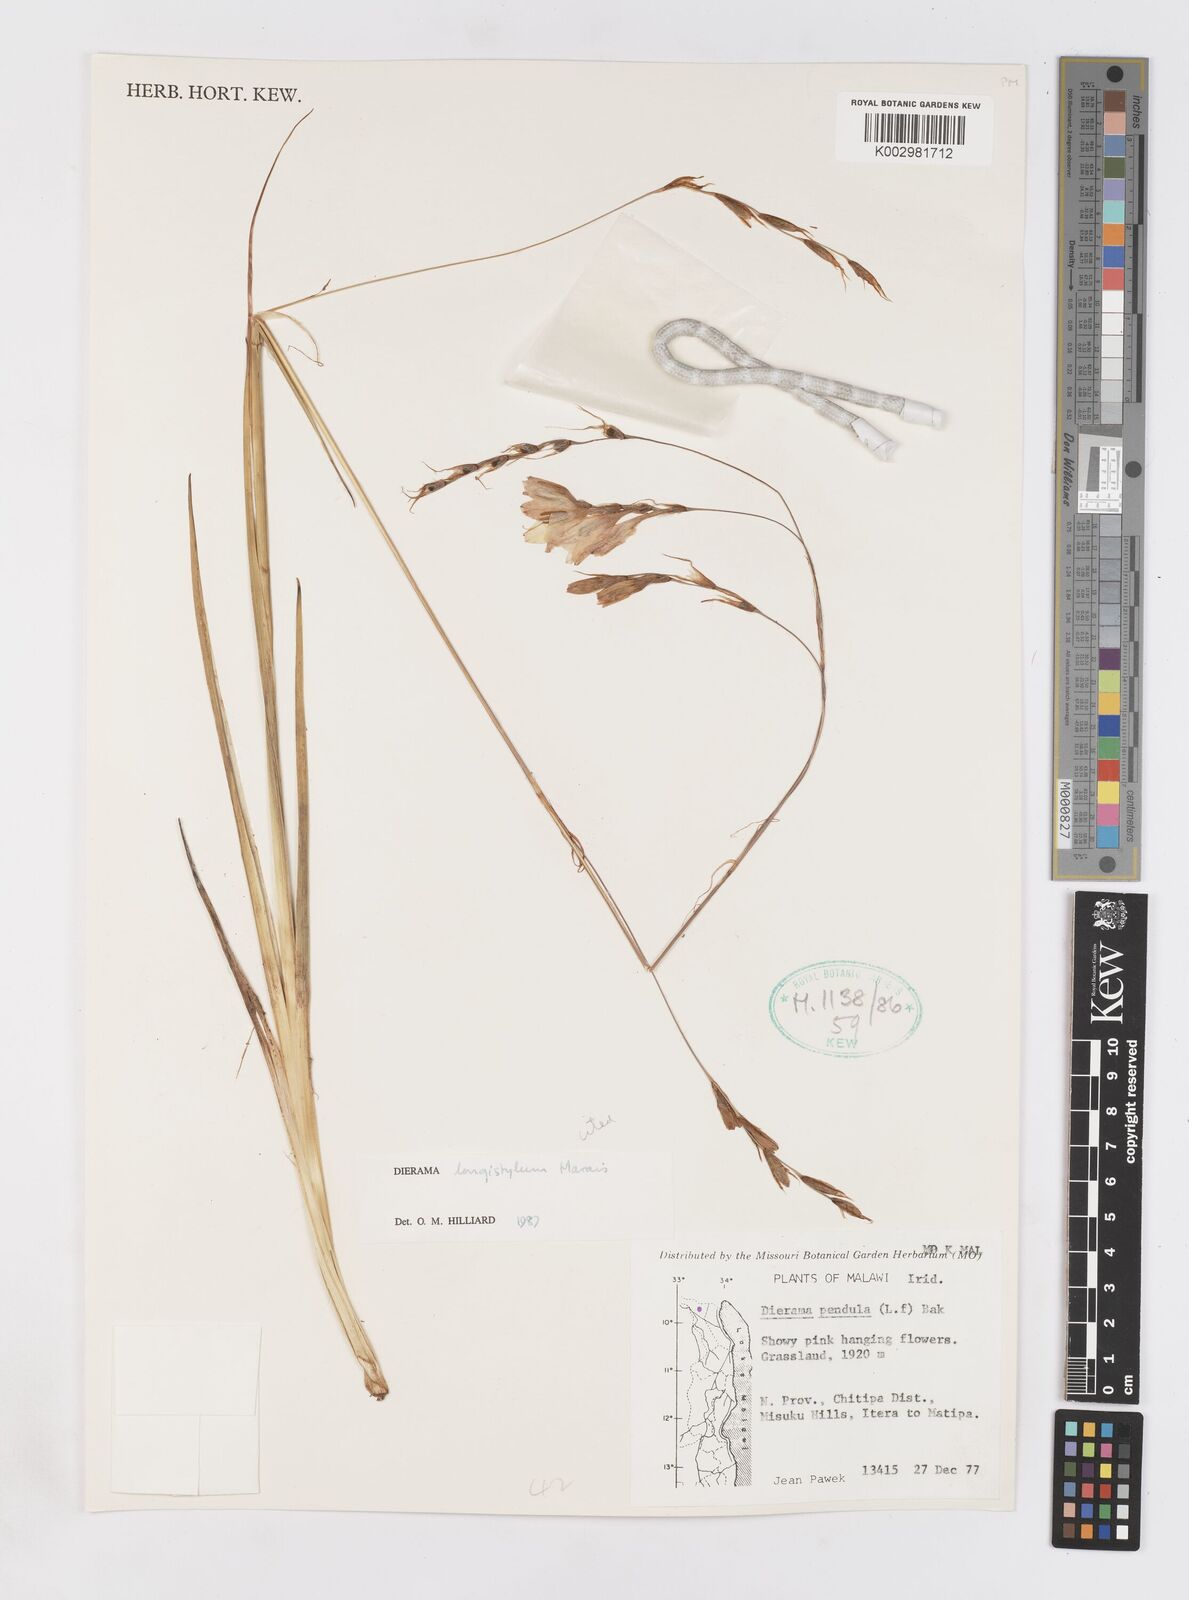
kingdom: Plantae
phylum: Tracheophyta
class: Liliopsida
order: Asparagales
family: Iridaceae
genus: Dierama
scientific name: Dierama longistylum
